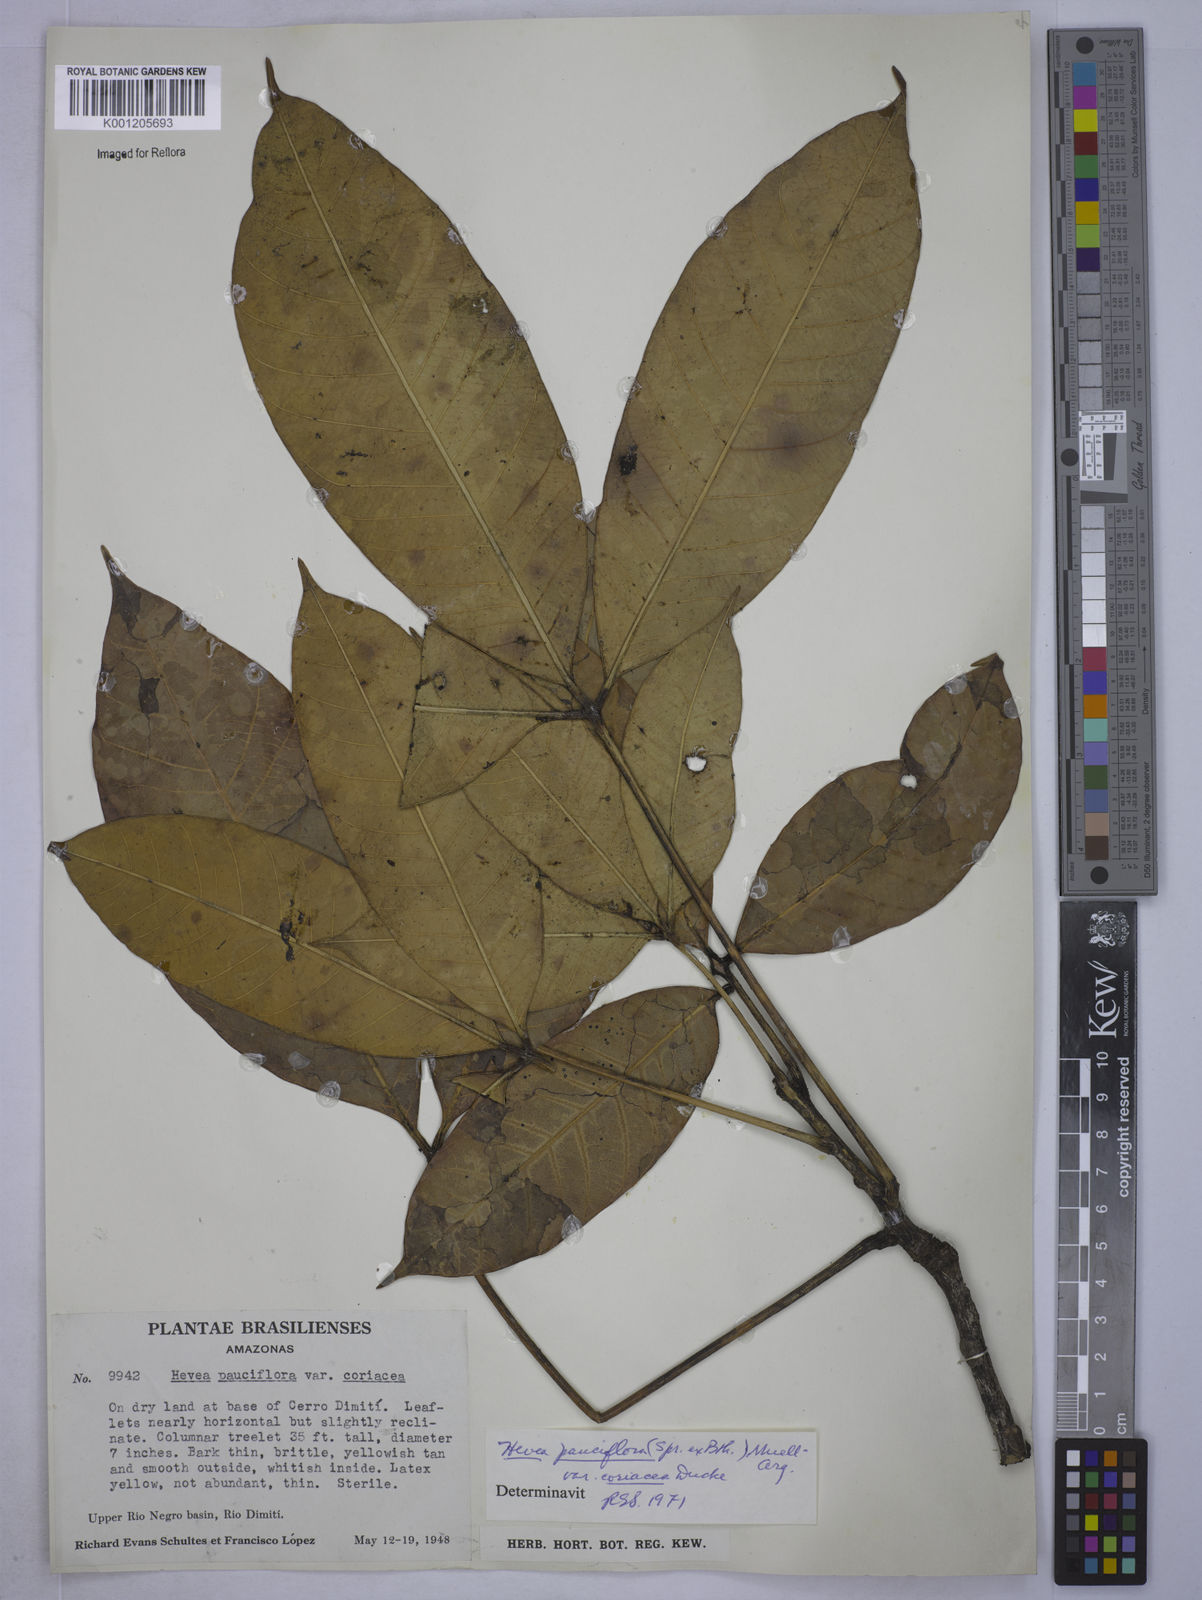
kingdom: Plantae
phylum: Tracheophyta
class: Magnoliopsida
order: Malpighiales
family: Euphorbiaceae
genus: Hevea
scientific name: Hevea pauciflora
